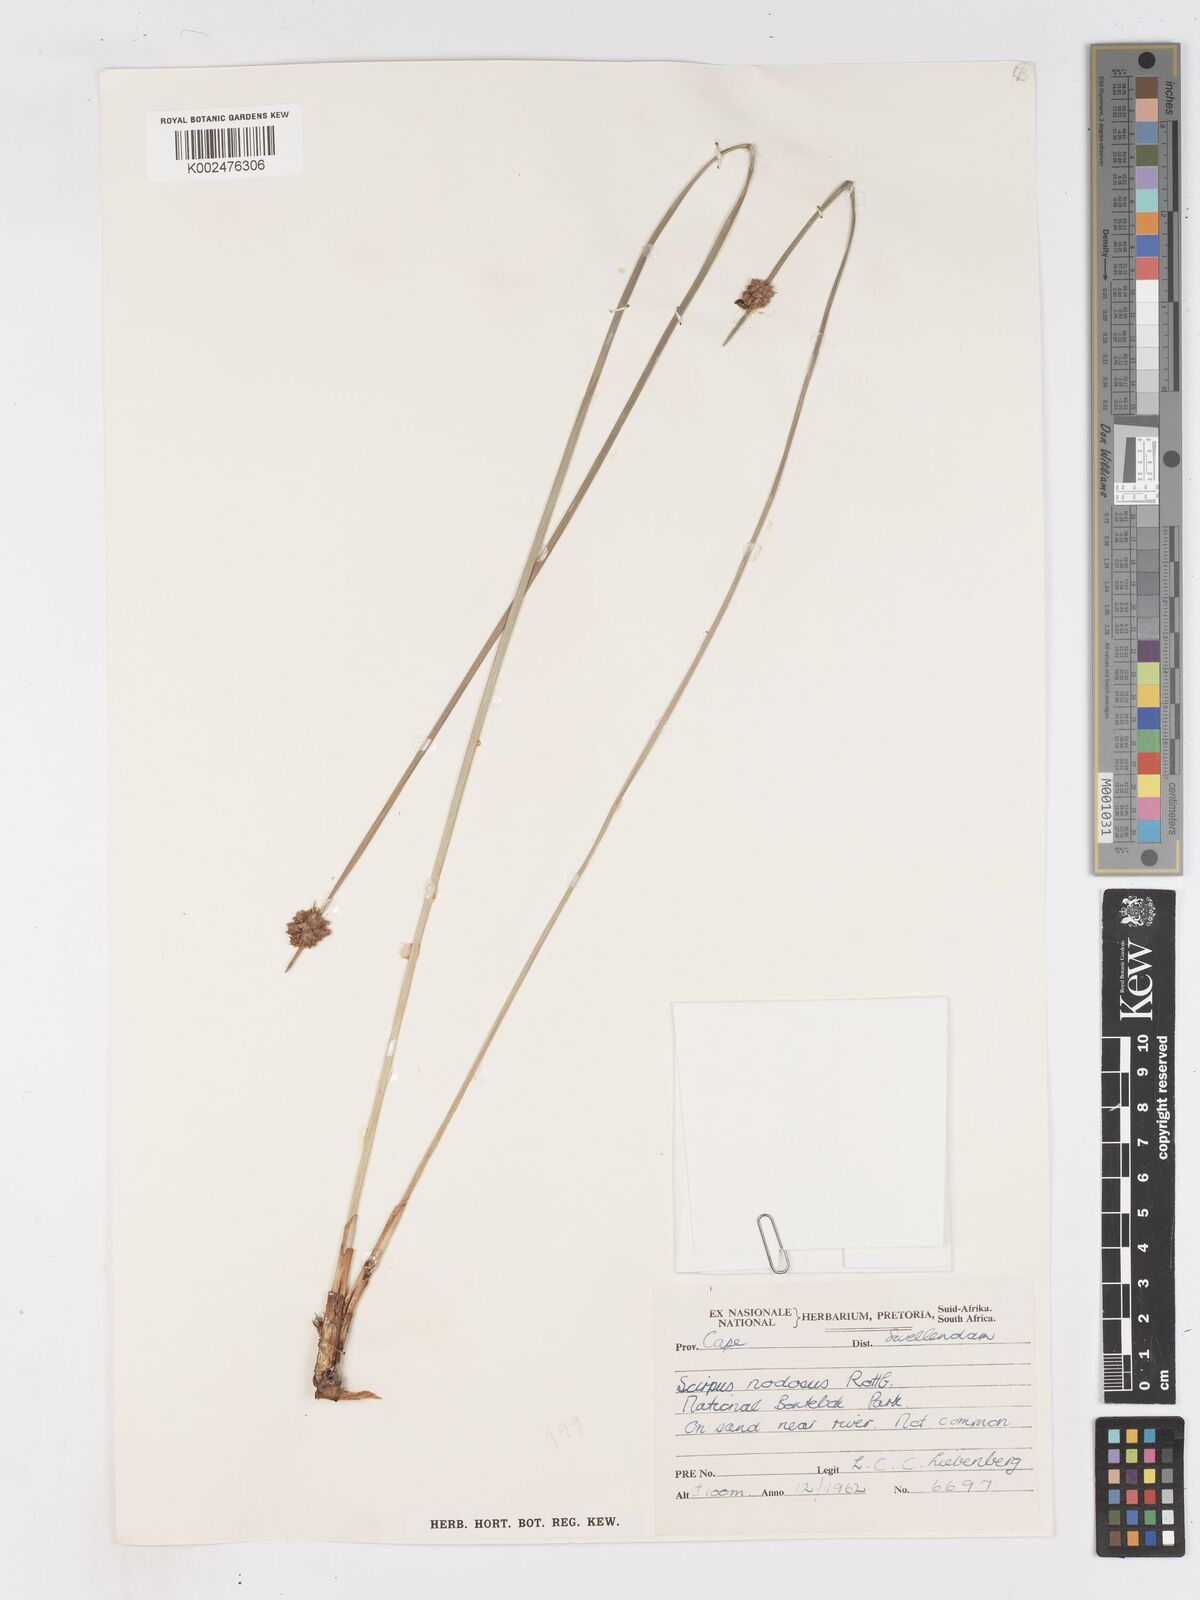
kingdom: Plantae
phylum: Tracheophyta
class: Liliopsida
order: Poales
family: Cyperaceae
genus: Ficinia
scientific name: Ficinia nodosa
